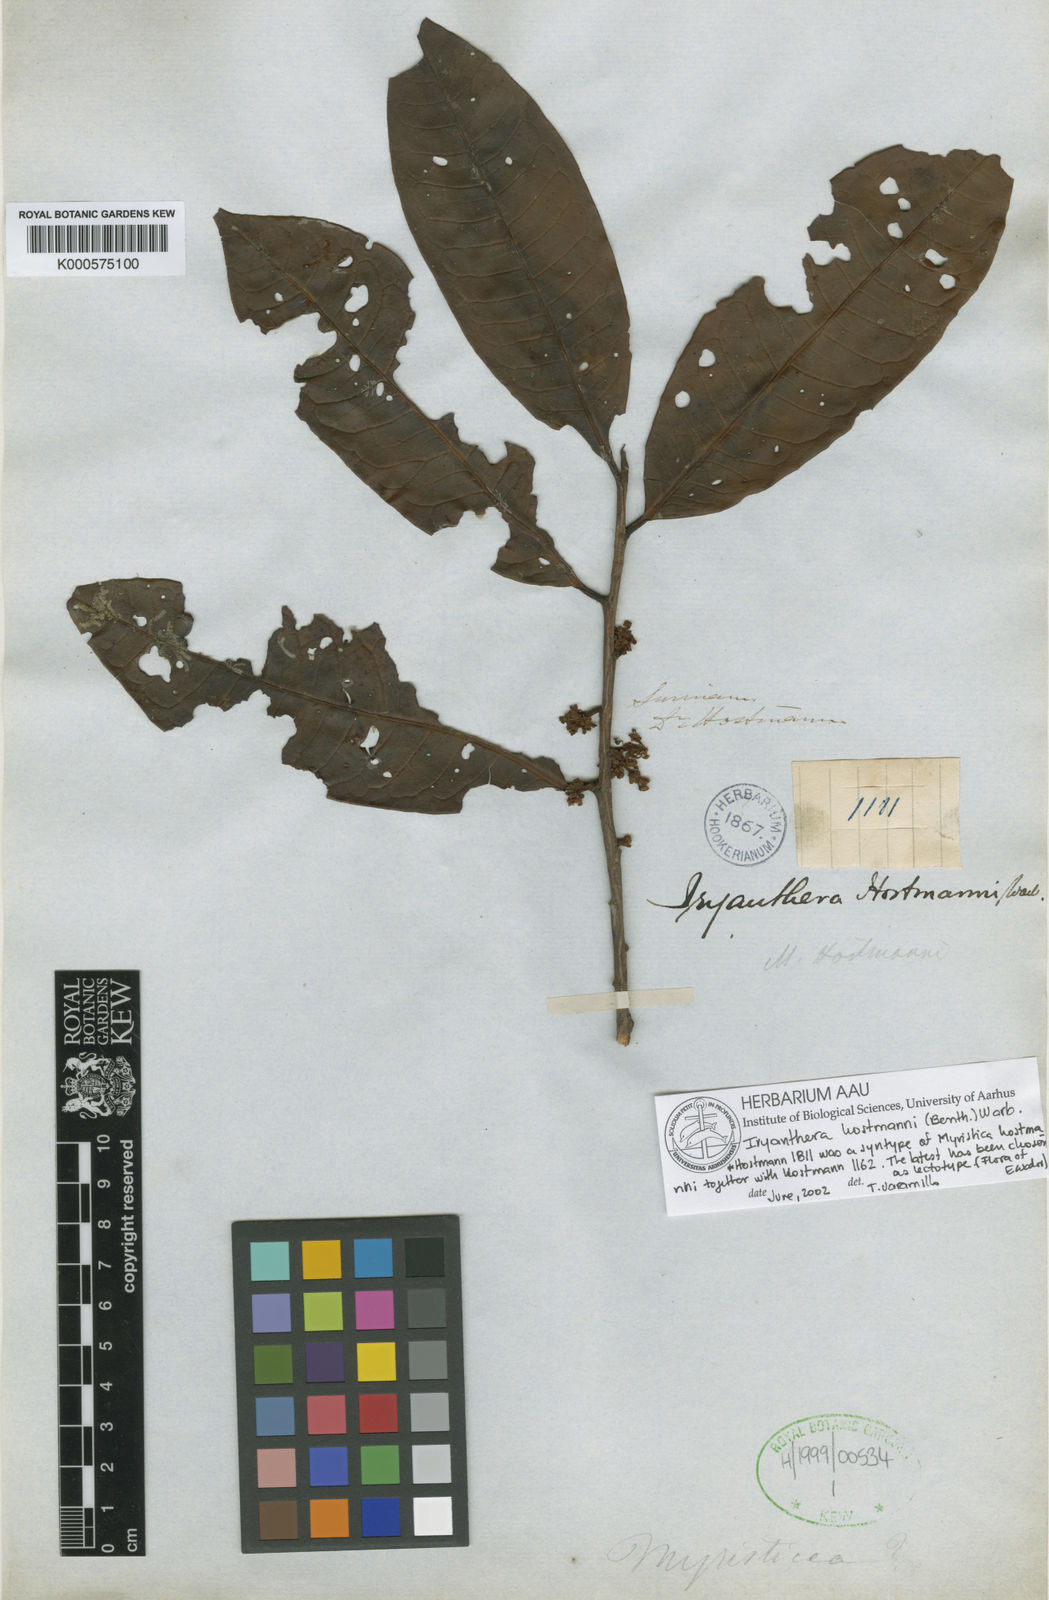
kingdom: Plantae
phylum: Tracheophyta
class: Magnoliopsida
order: Magnoliales
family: Myristicaceae
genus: Iryanthera
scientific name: Iryanthera hostmannii
